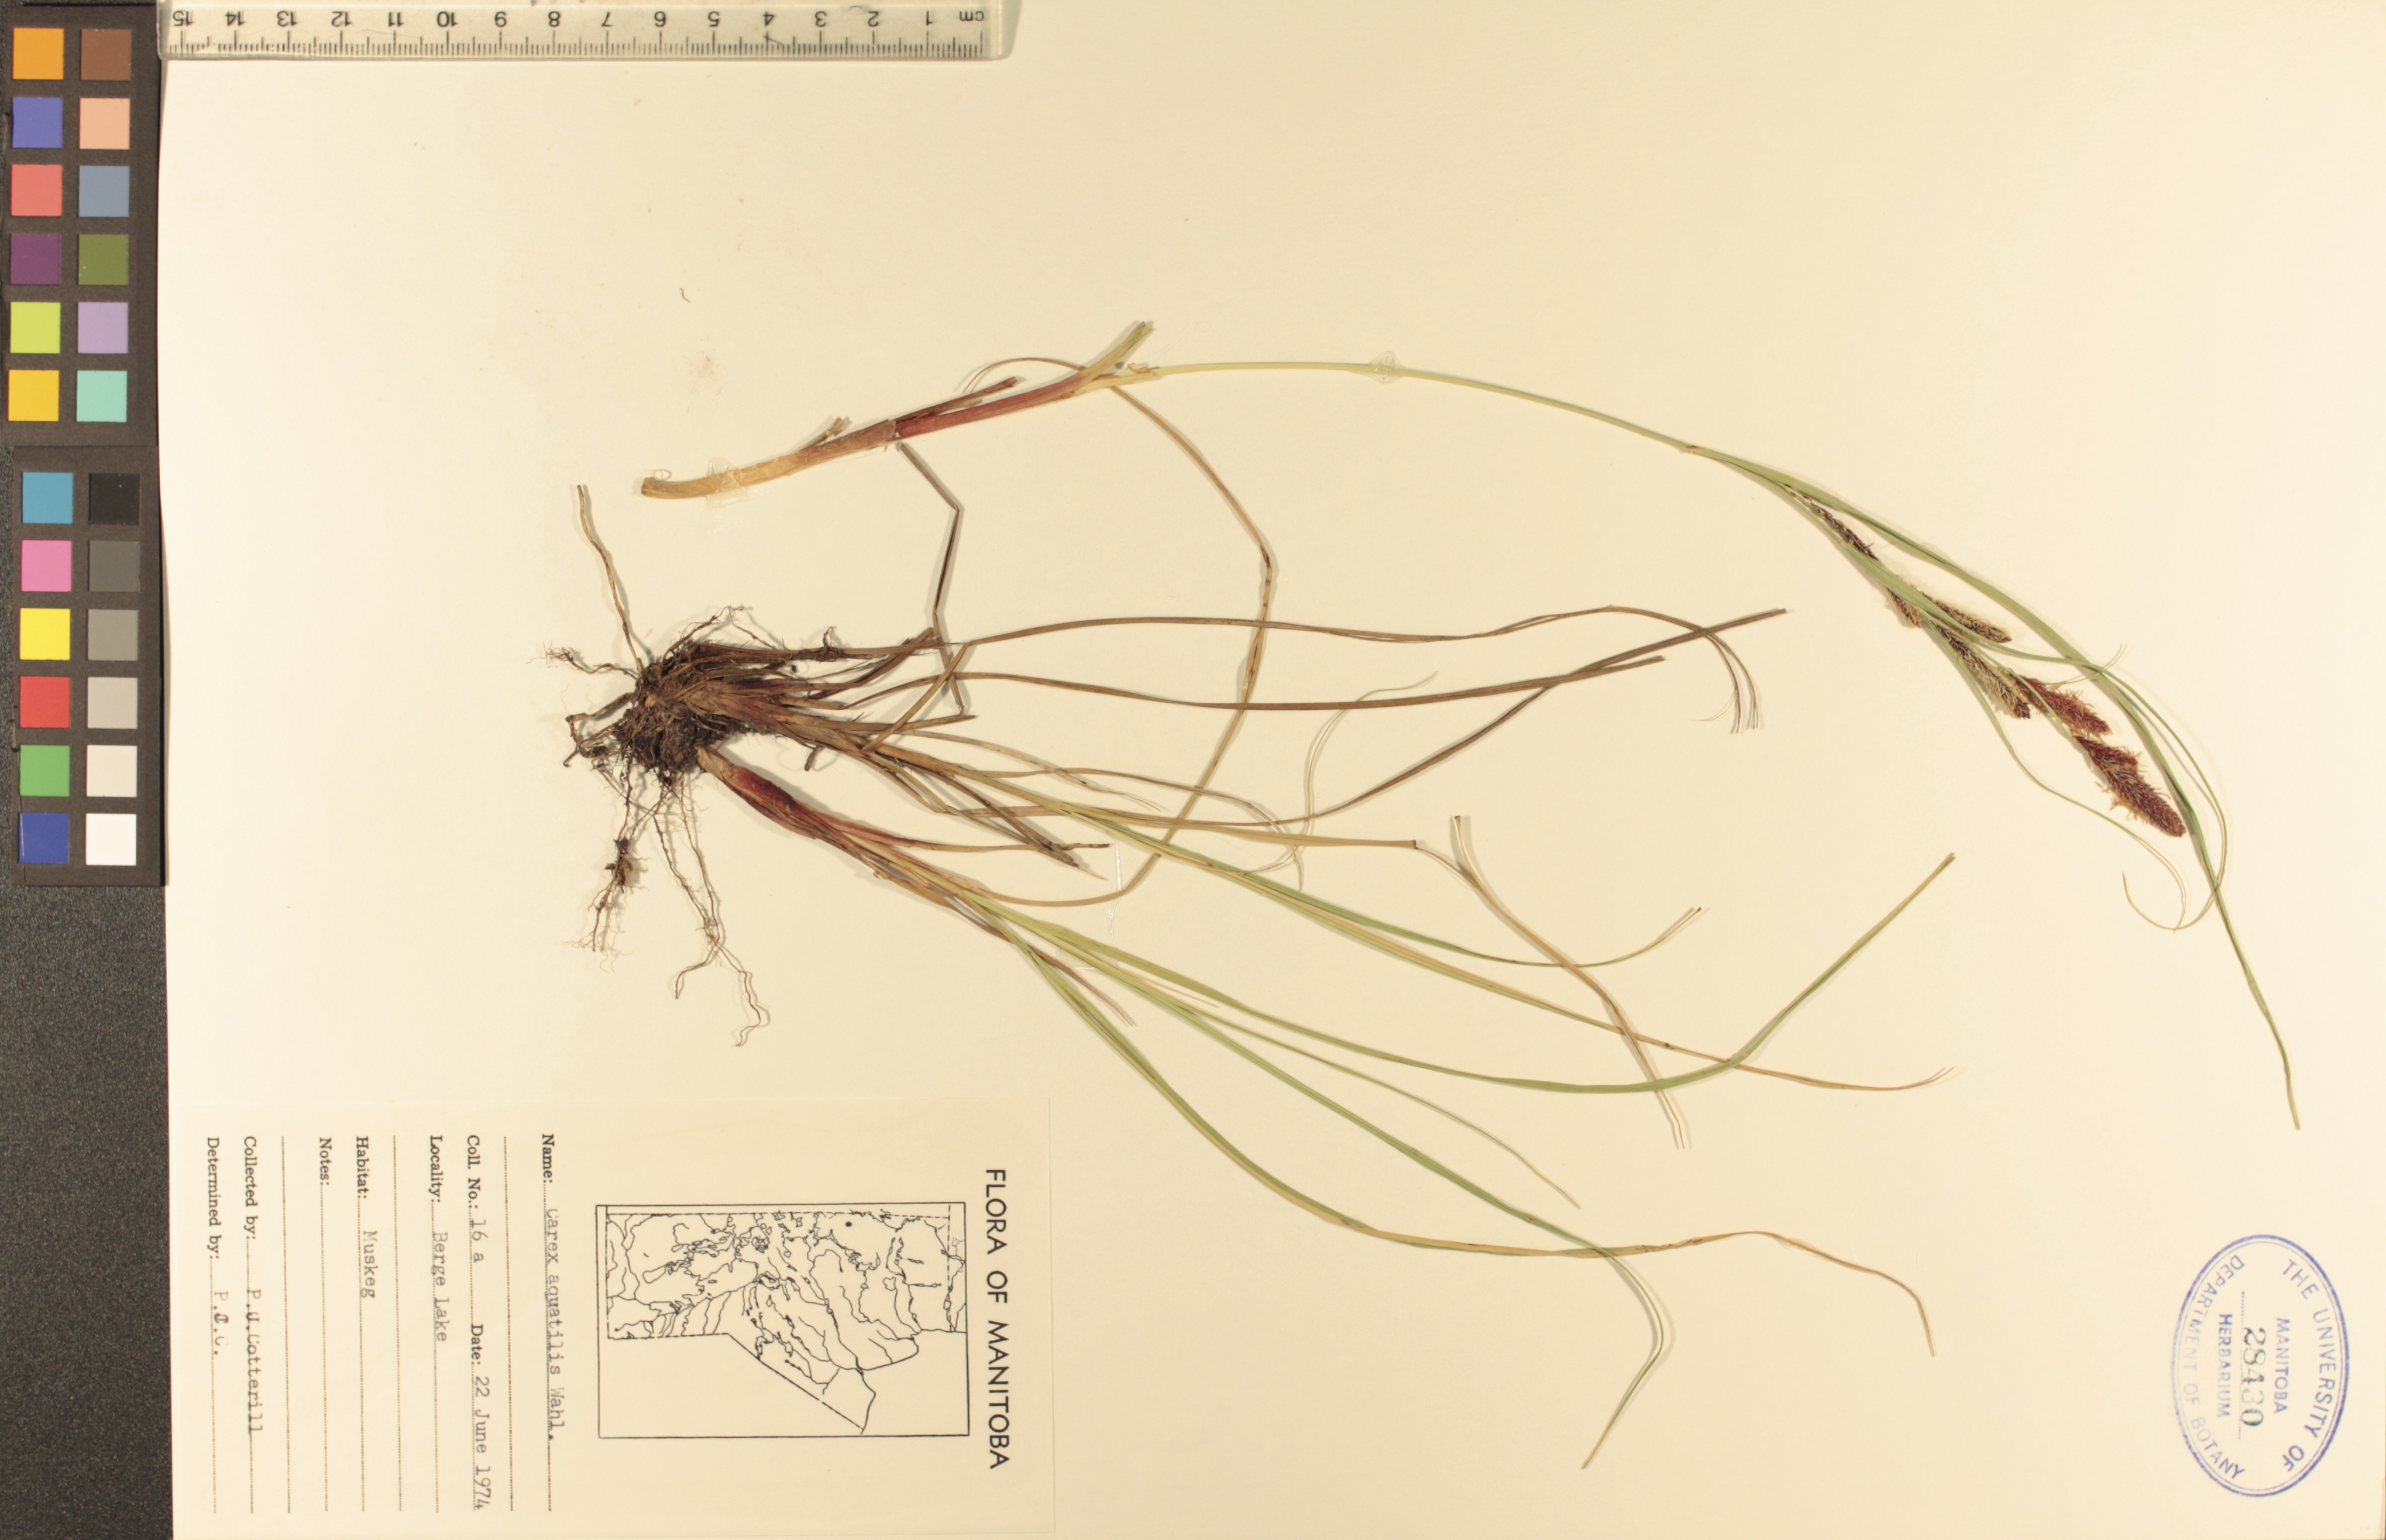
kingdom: Plantae
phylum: Tracheophyta
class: Liliopsida
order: Poales
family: Cyperaceae
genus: Carex
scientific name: Carex aquatilis
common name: Water sedge
